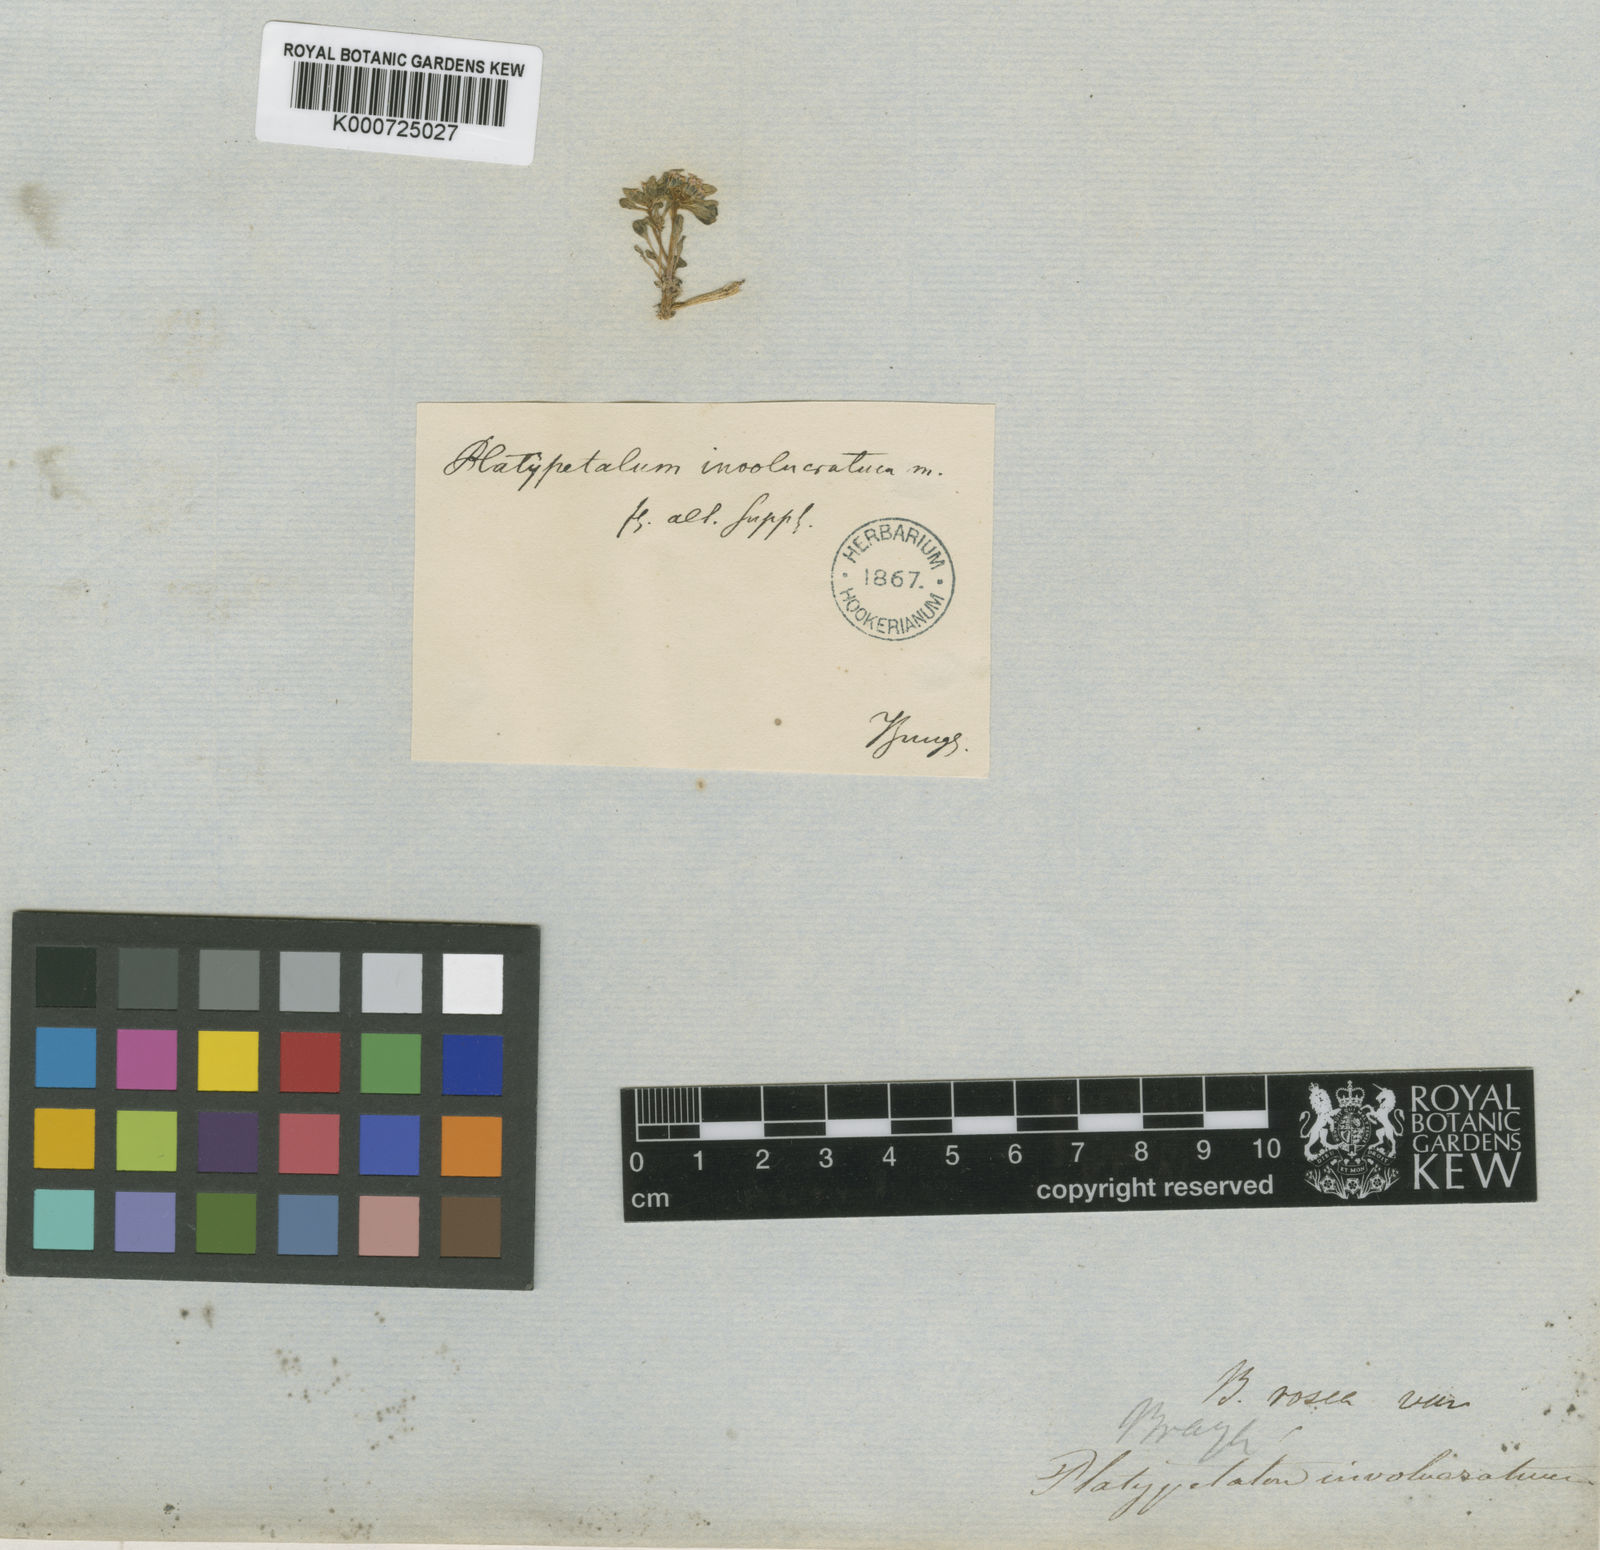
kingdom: Plantae
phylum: Tracheophyta
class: Magnoliopsida
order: Brassicales
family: Brassicaceae
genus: Aphragmus
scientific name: Aphragmus involucratus
